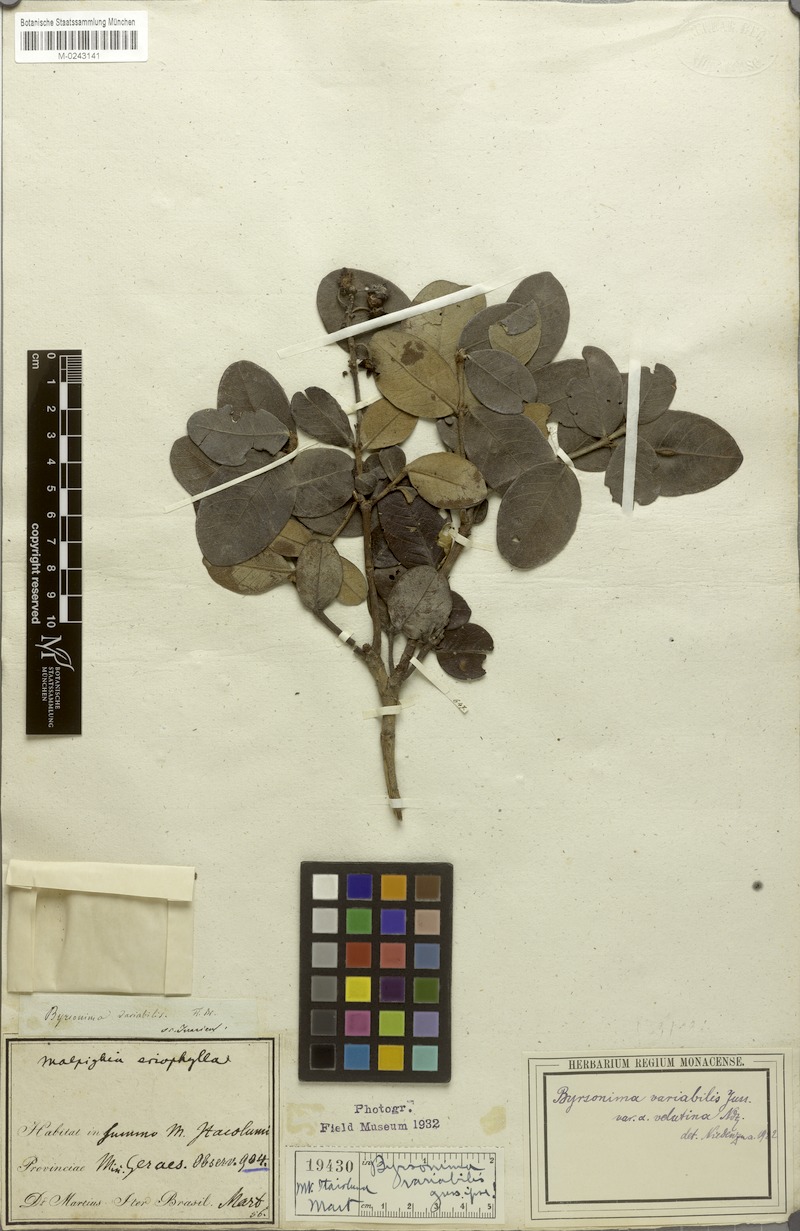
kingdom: Plantae
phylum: Tracheophyta
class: Magnoliopsida
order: Malpighiales
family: Malpighiaceae
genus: Byrsonima
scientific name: Byrsonima variabilis
